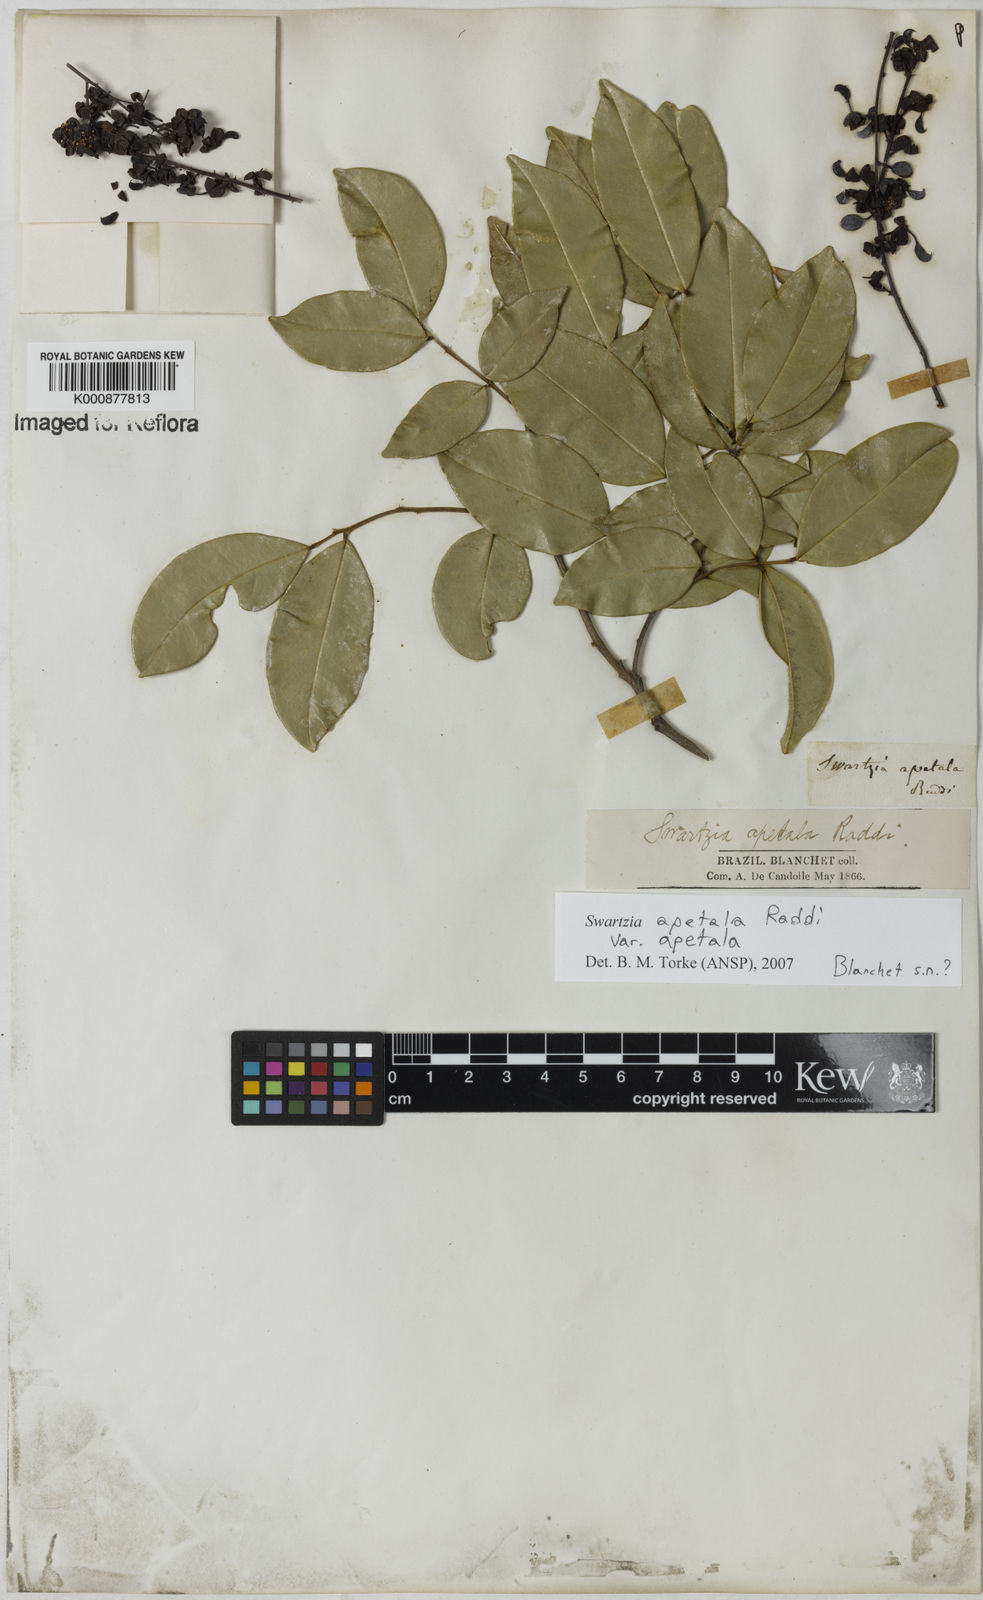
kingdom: Plantae
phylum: Tracheophyta
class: Magnoliopsida
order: Fabales
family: Fabaceae
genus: Swartzia
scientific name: Swartzia apetala
